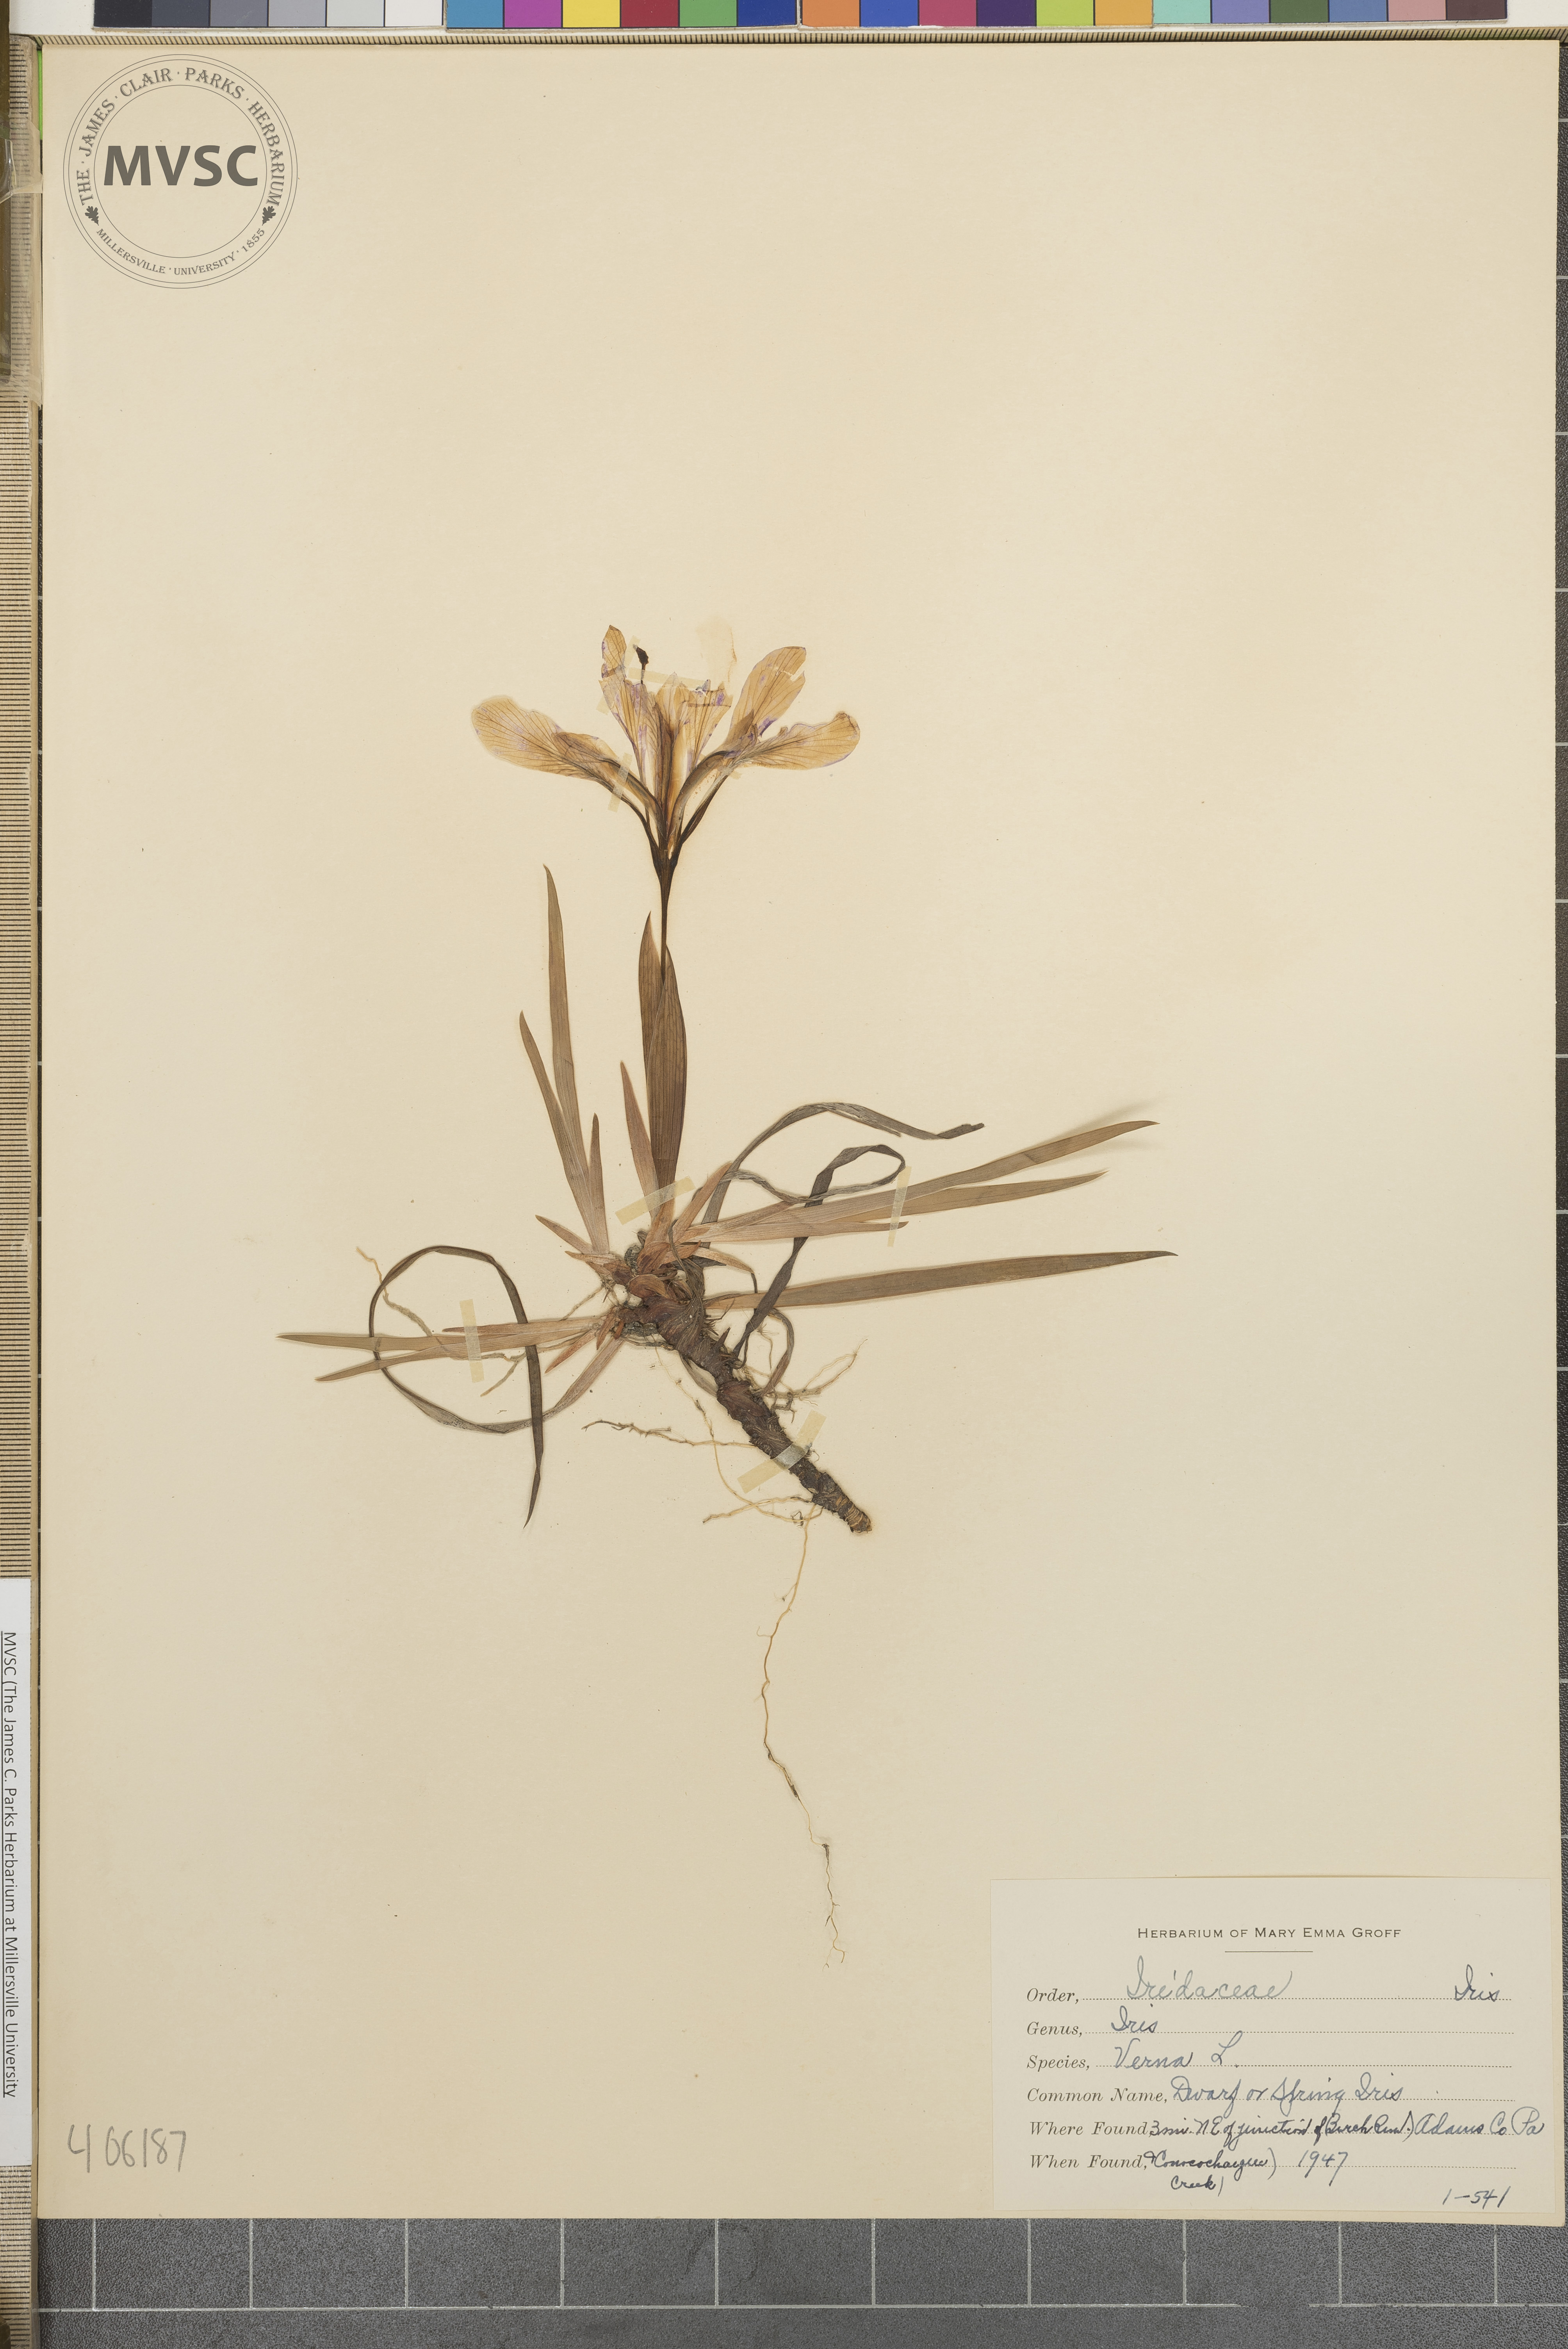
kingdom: Plantae
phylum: Tracheophyta
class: Liliopsida
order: Asparagales
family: Iridaceae
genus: Iris
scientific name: Iris verna
